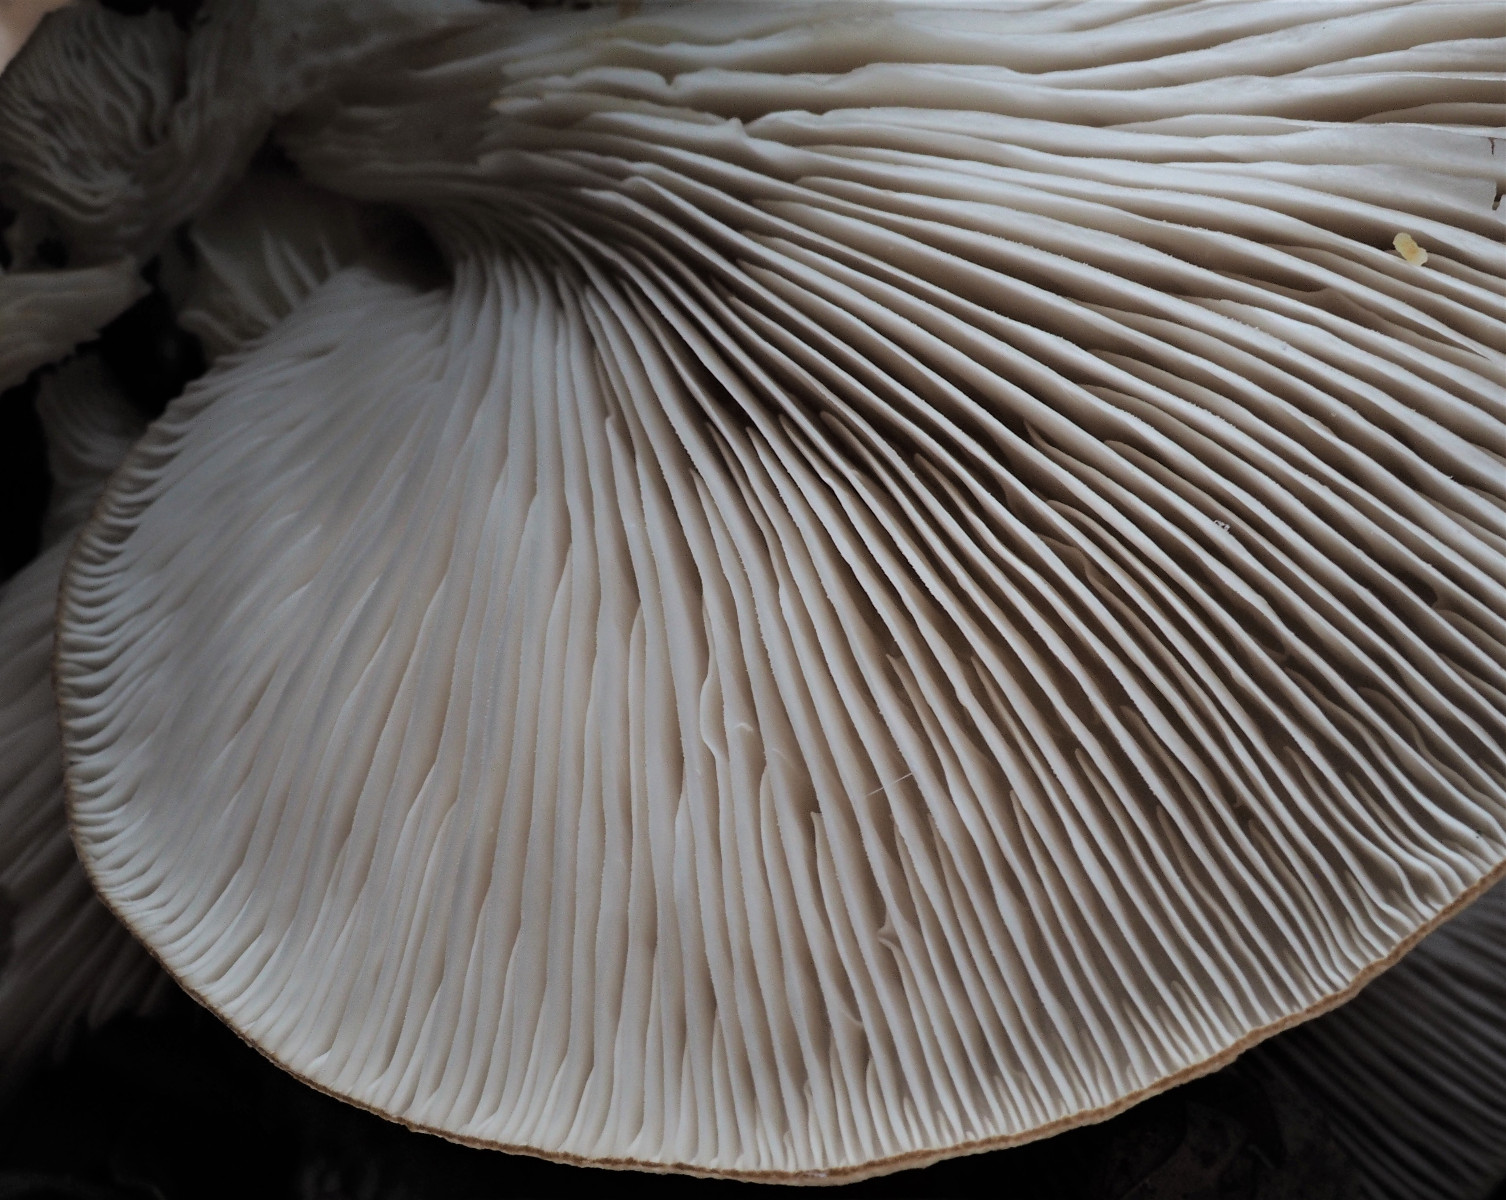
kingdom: Fungi
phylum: Basidiomycota
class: Agaricomycetes
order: Agaricales
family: Pleurotaceae
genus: Pleurotus
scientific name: Pleurotus ostreatus
